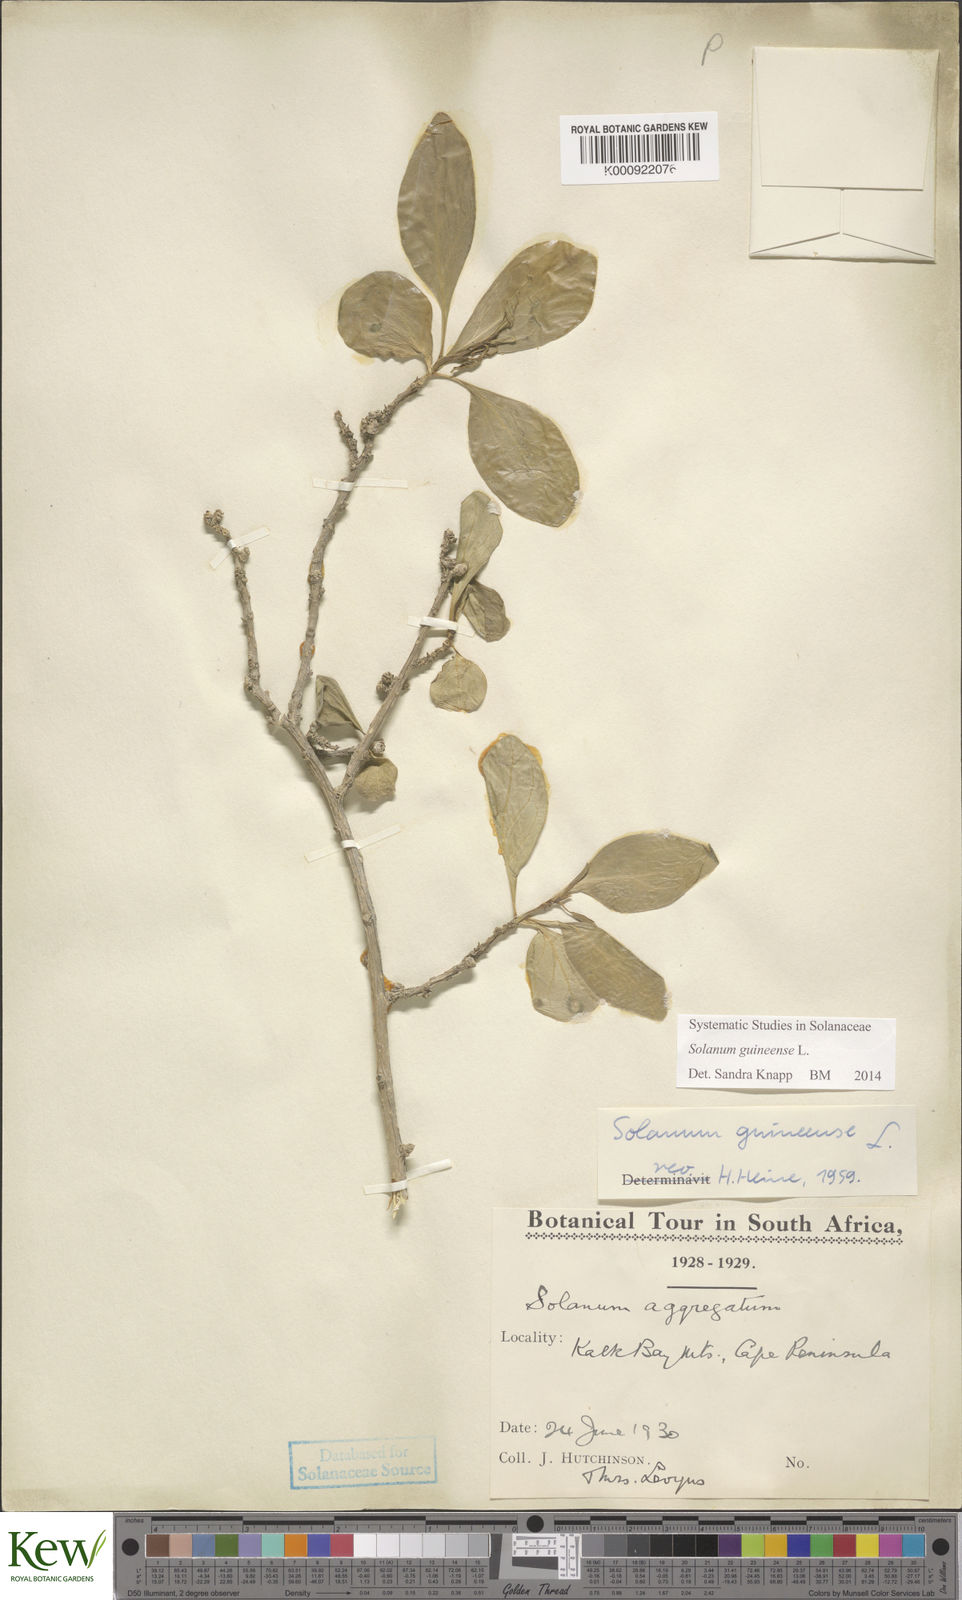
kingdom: Plantae
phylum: Tracheophyta
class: Magnoliopsida
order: Solanales
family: Solanaceae
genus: Solanum
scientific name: Solanum guineense
